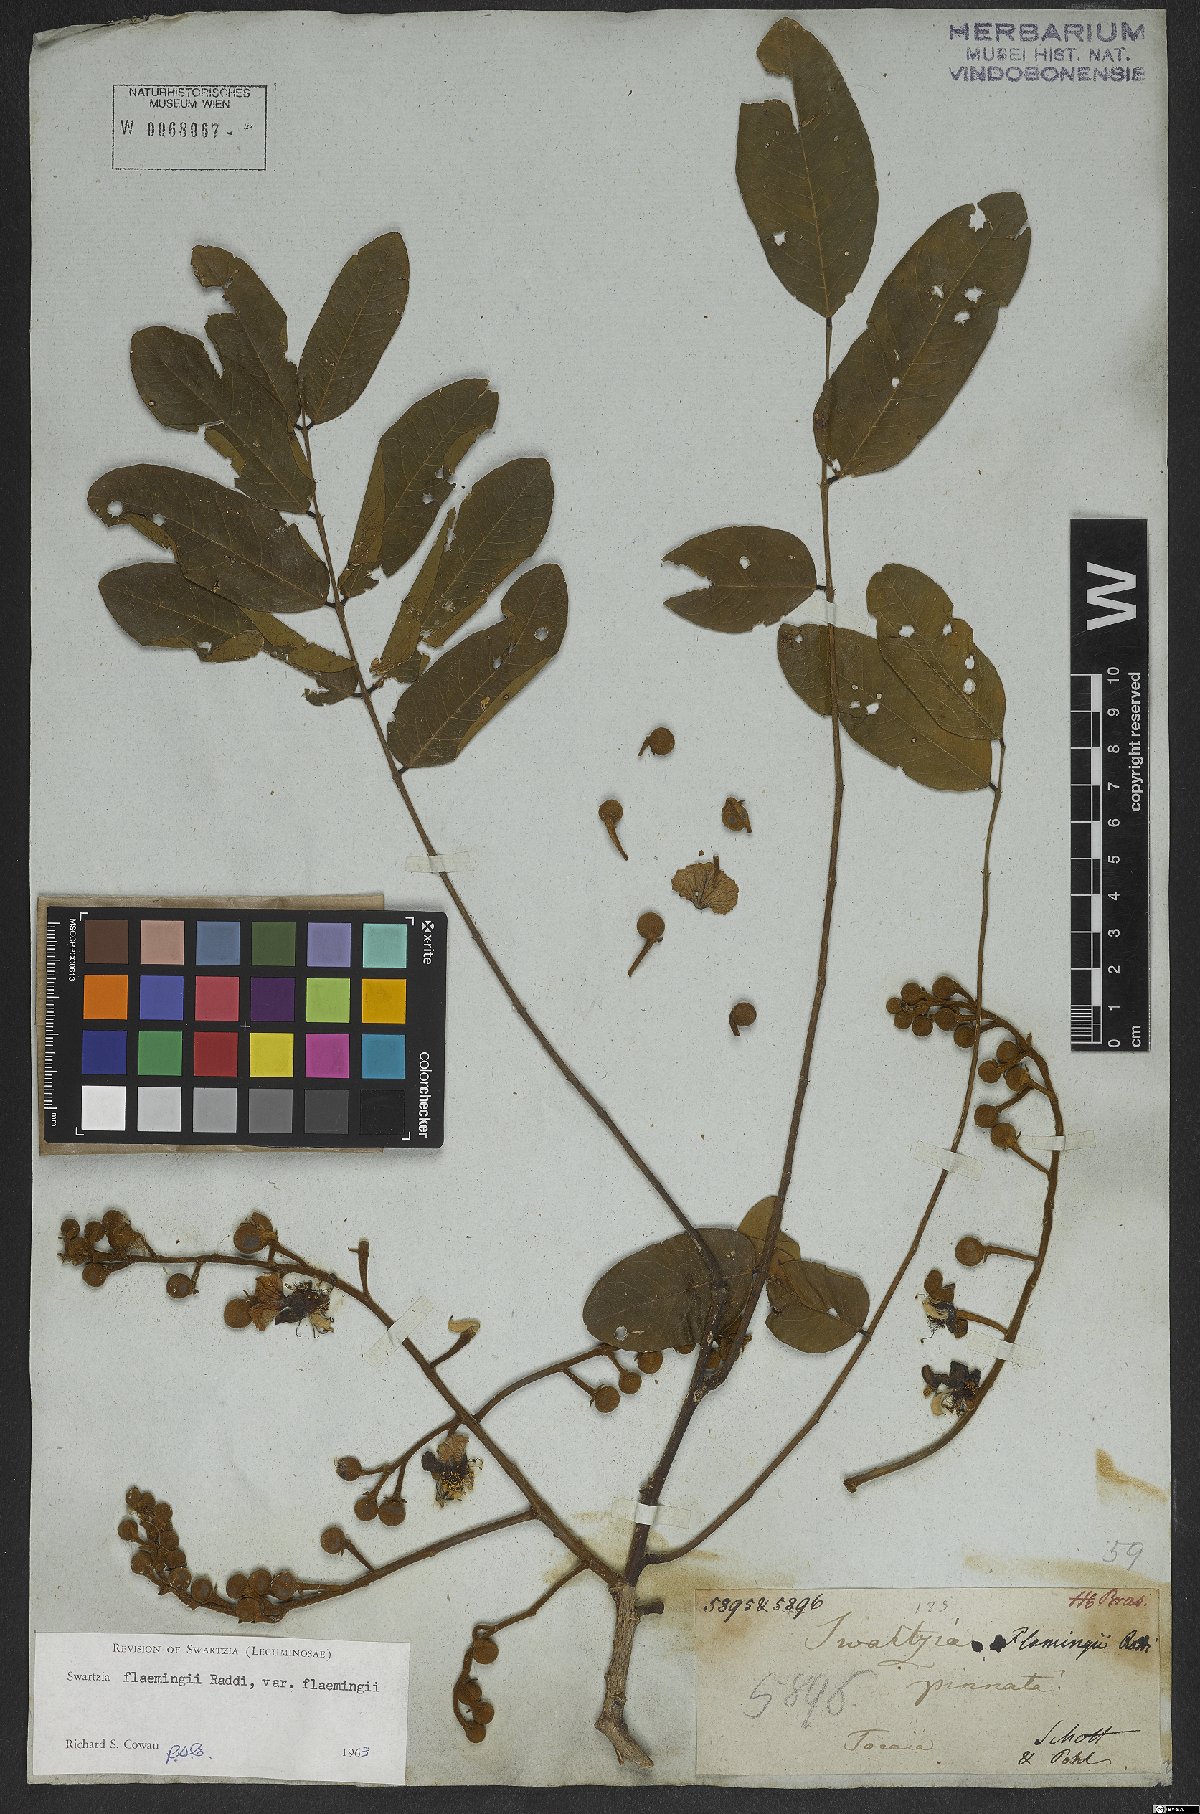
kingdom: Plantae
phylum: Tracheophyta
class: Magnoliopsida
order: Fabales
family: Fabaceae
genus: Swartzia
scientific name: Swartzia flaemingii
